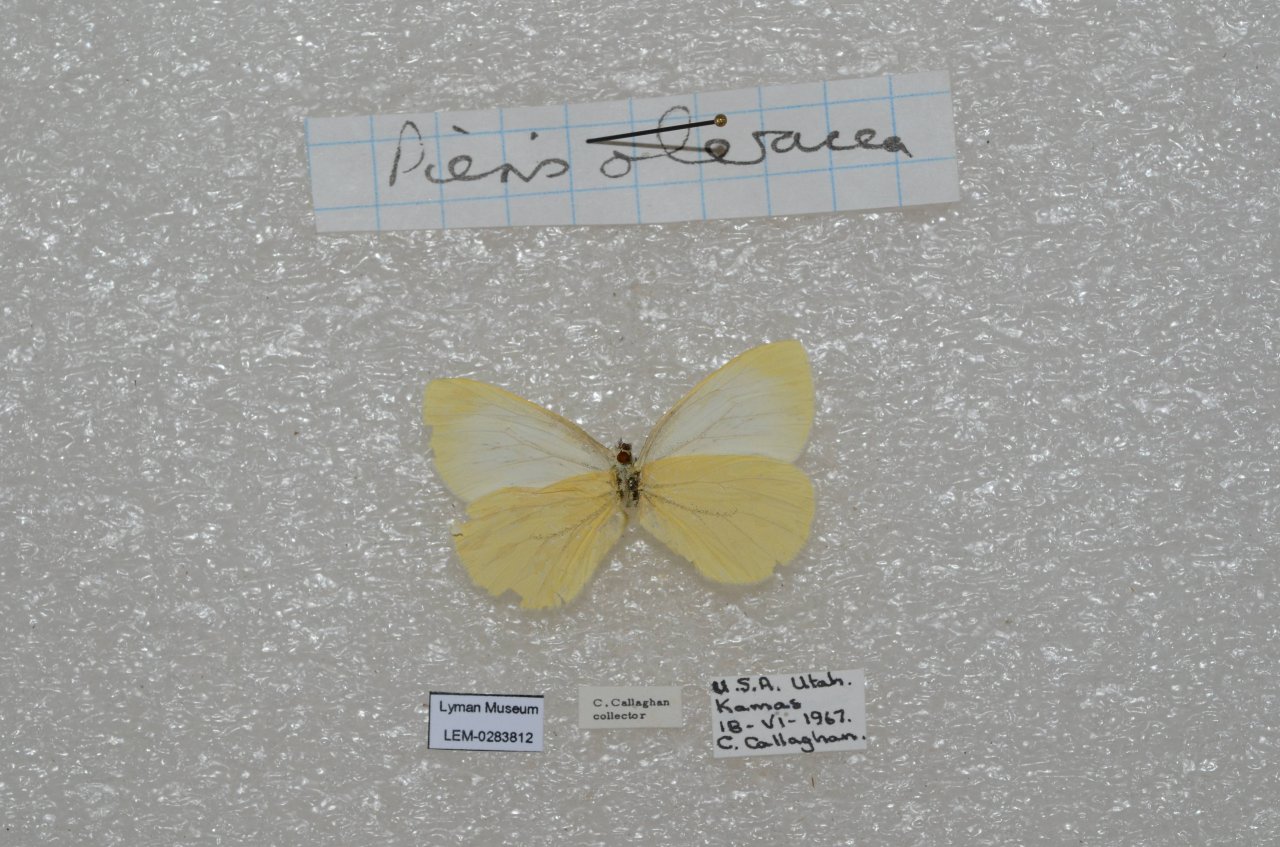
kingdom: Animalia
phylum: Arthropoda
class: Insecta
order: Lepidoptera
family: Pieridae
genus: Pieris
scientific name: Pieris
